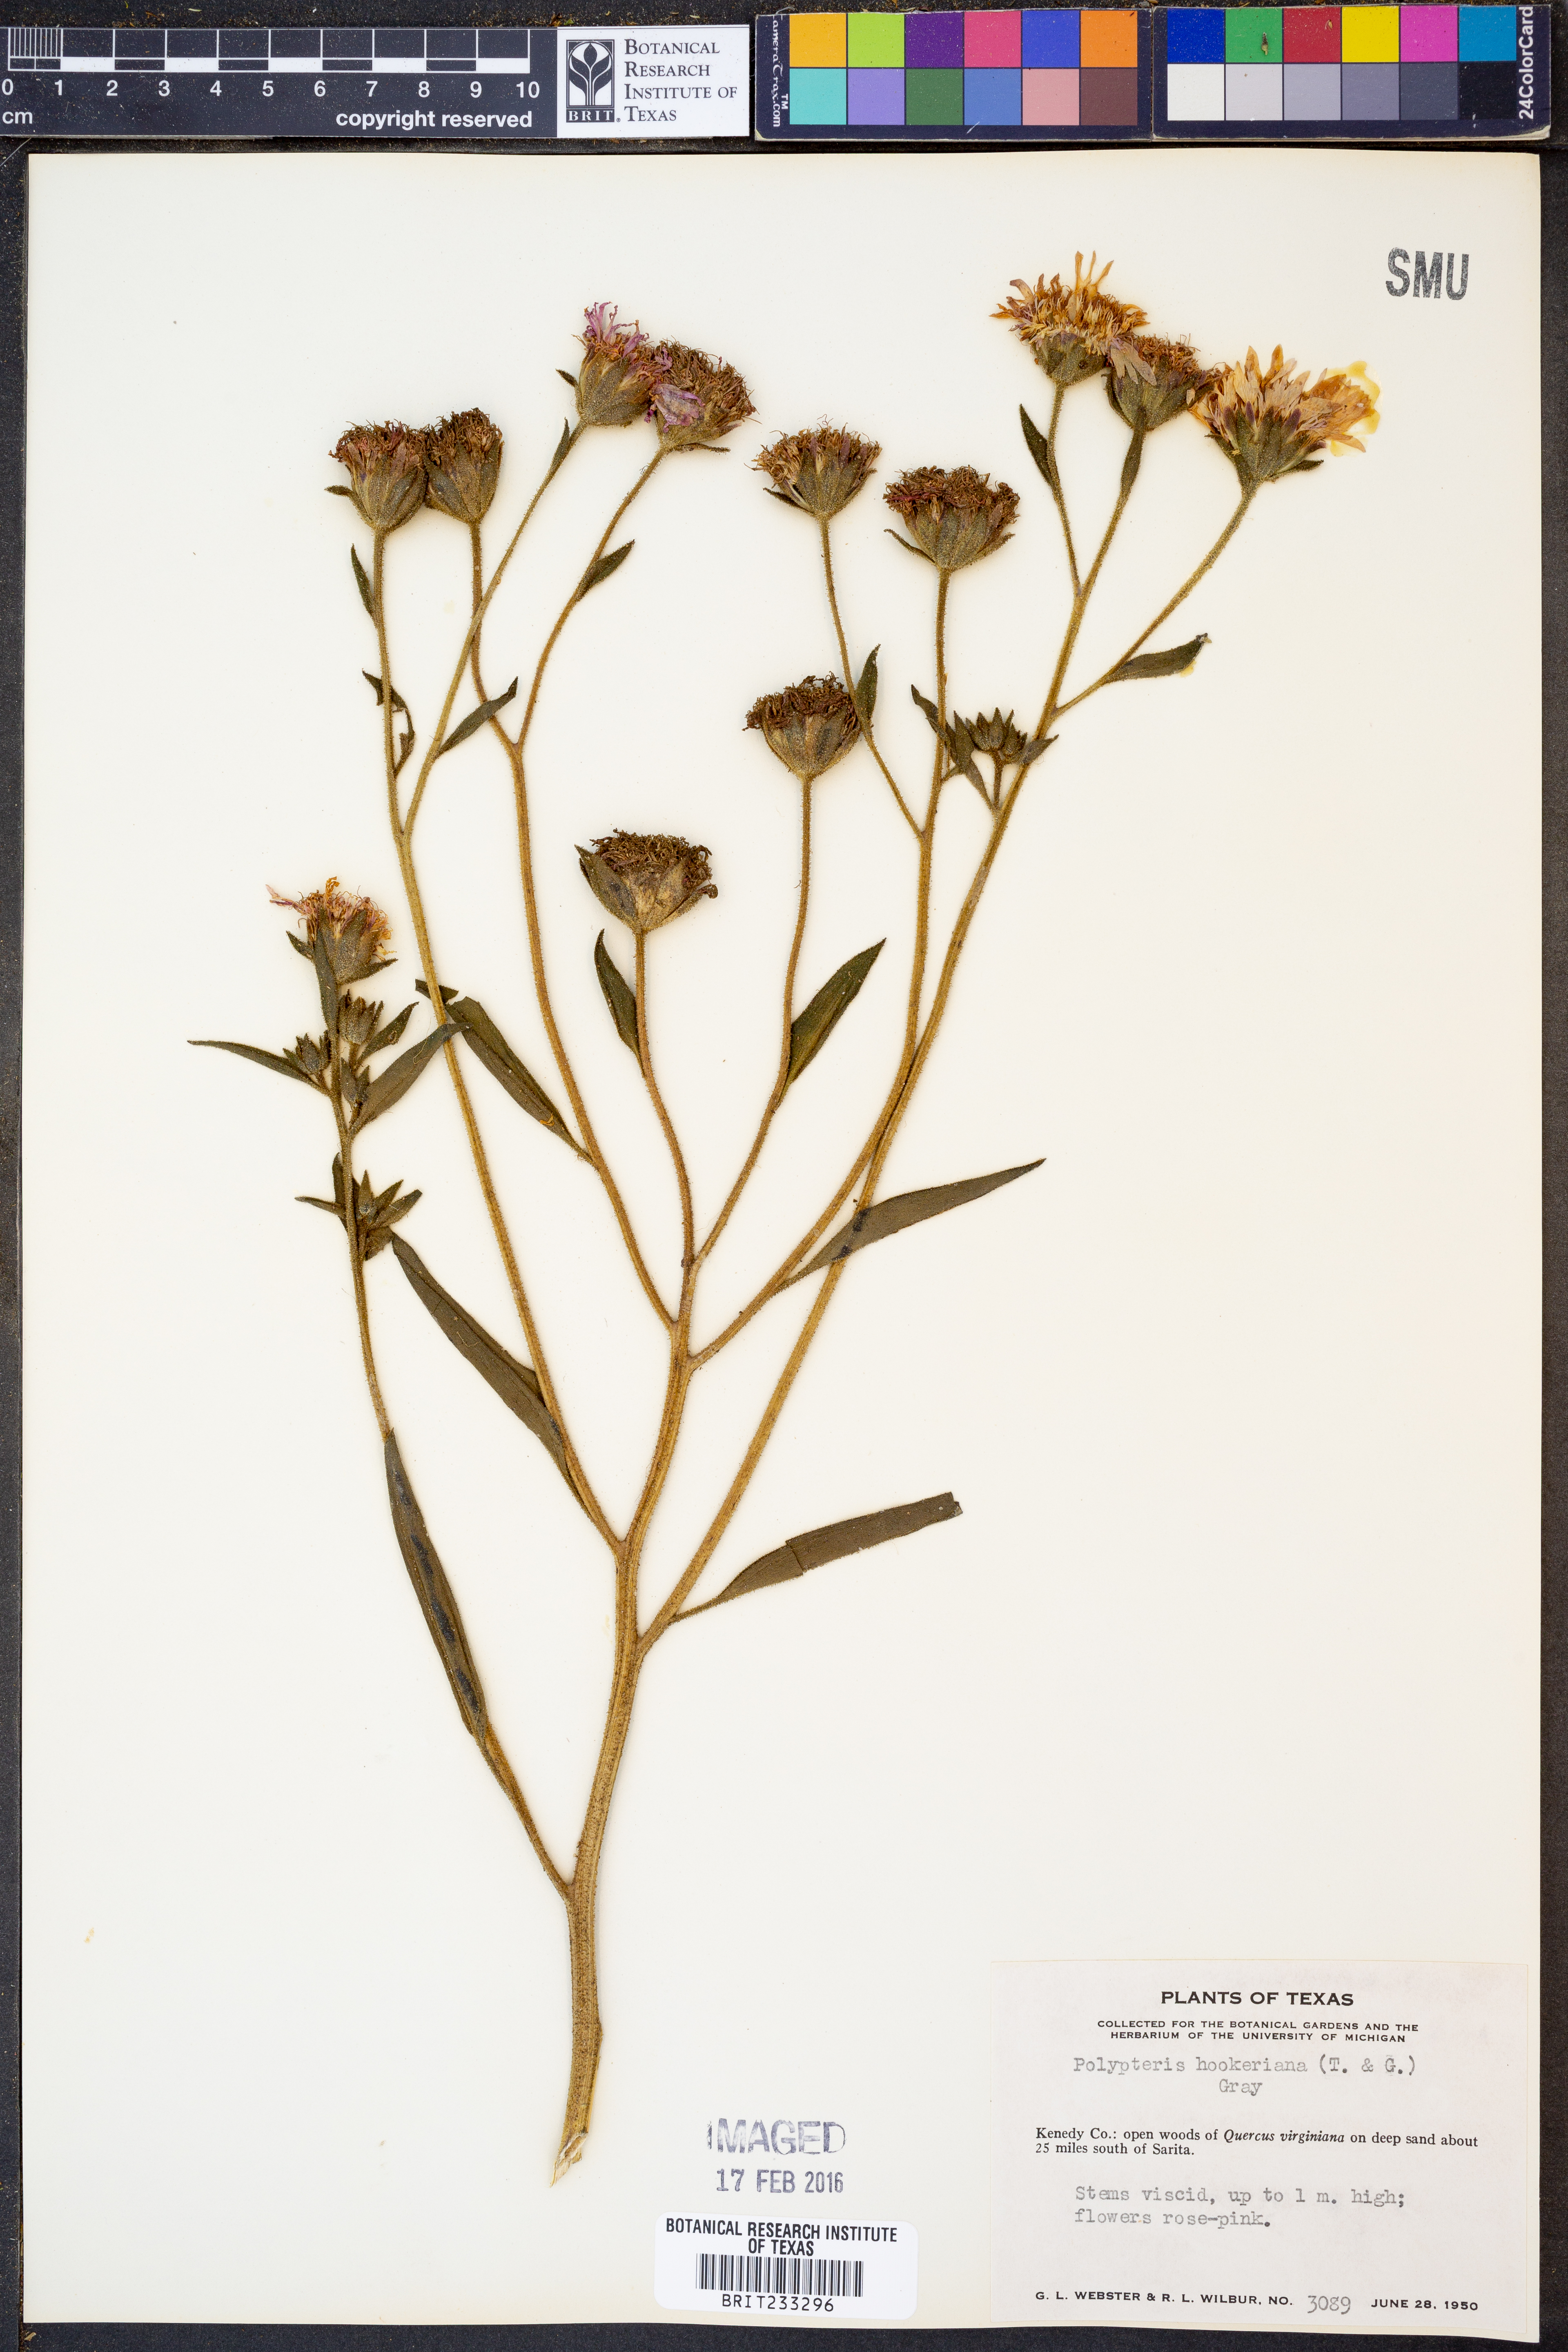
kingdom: Plantae
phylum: Tracheophyta
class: Magnoliopsida
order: Asterales
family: Asteraceae
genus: Palafoxia
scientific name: Palafoxia hookeriana
